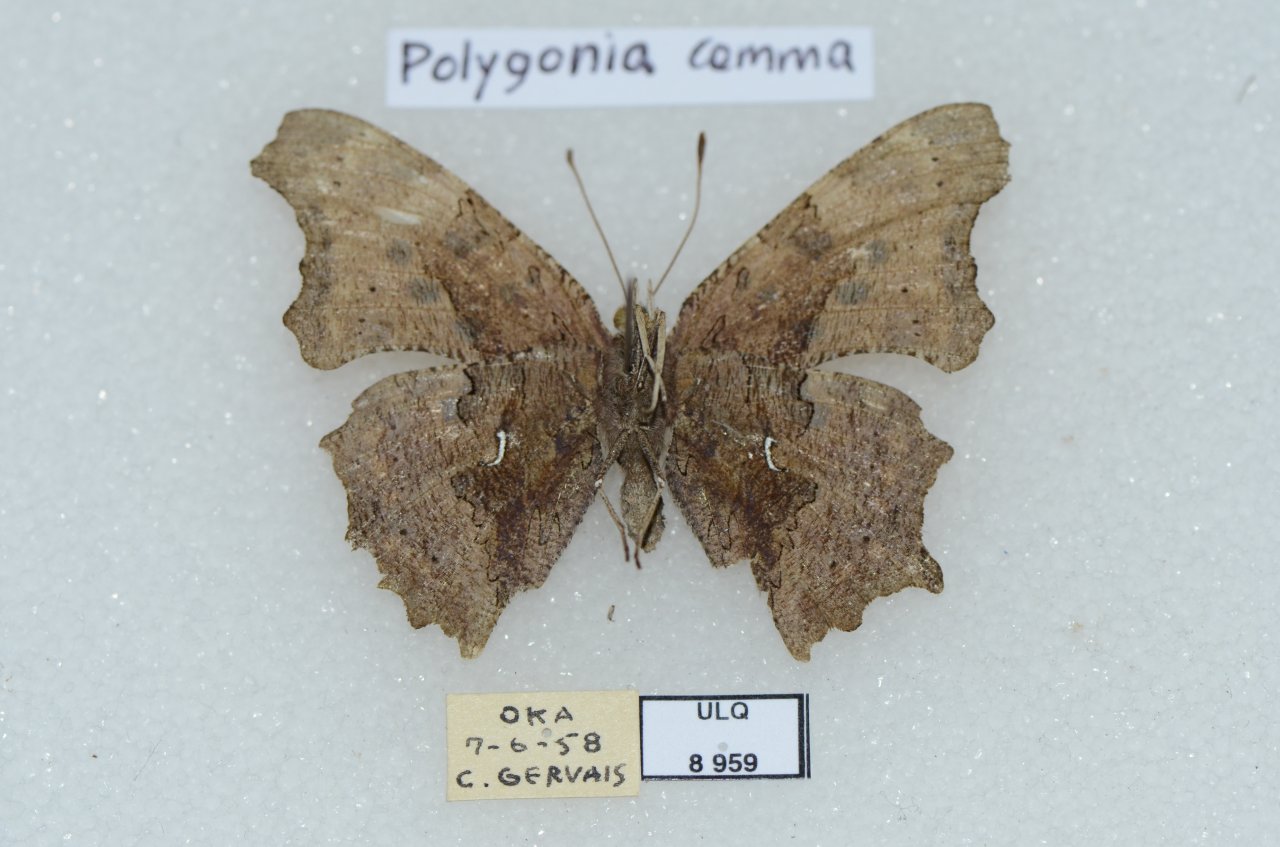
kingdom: Animalia
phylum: Arthropoda
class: Insecta
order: Lepidoptera
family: Nymphalidae
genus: Polygonia
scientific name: Polygonia comma
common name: Eastern Comma
